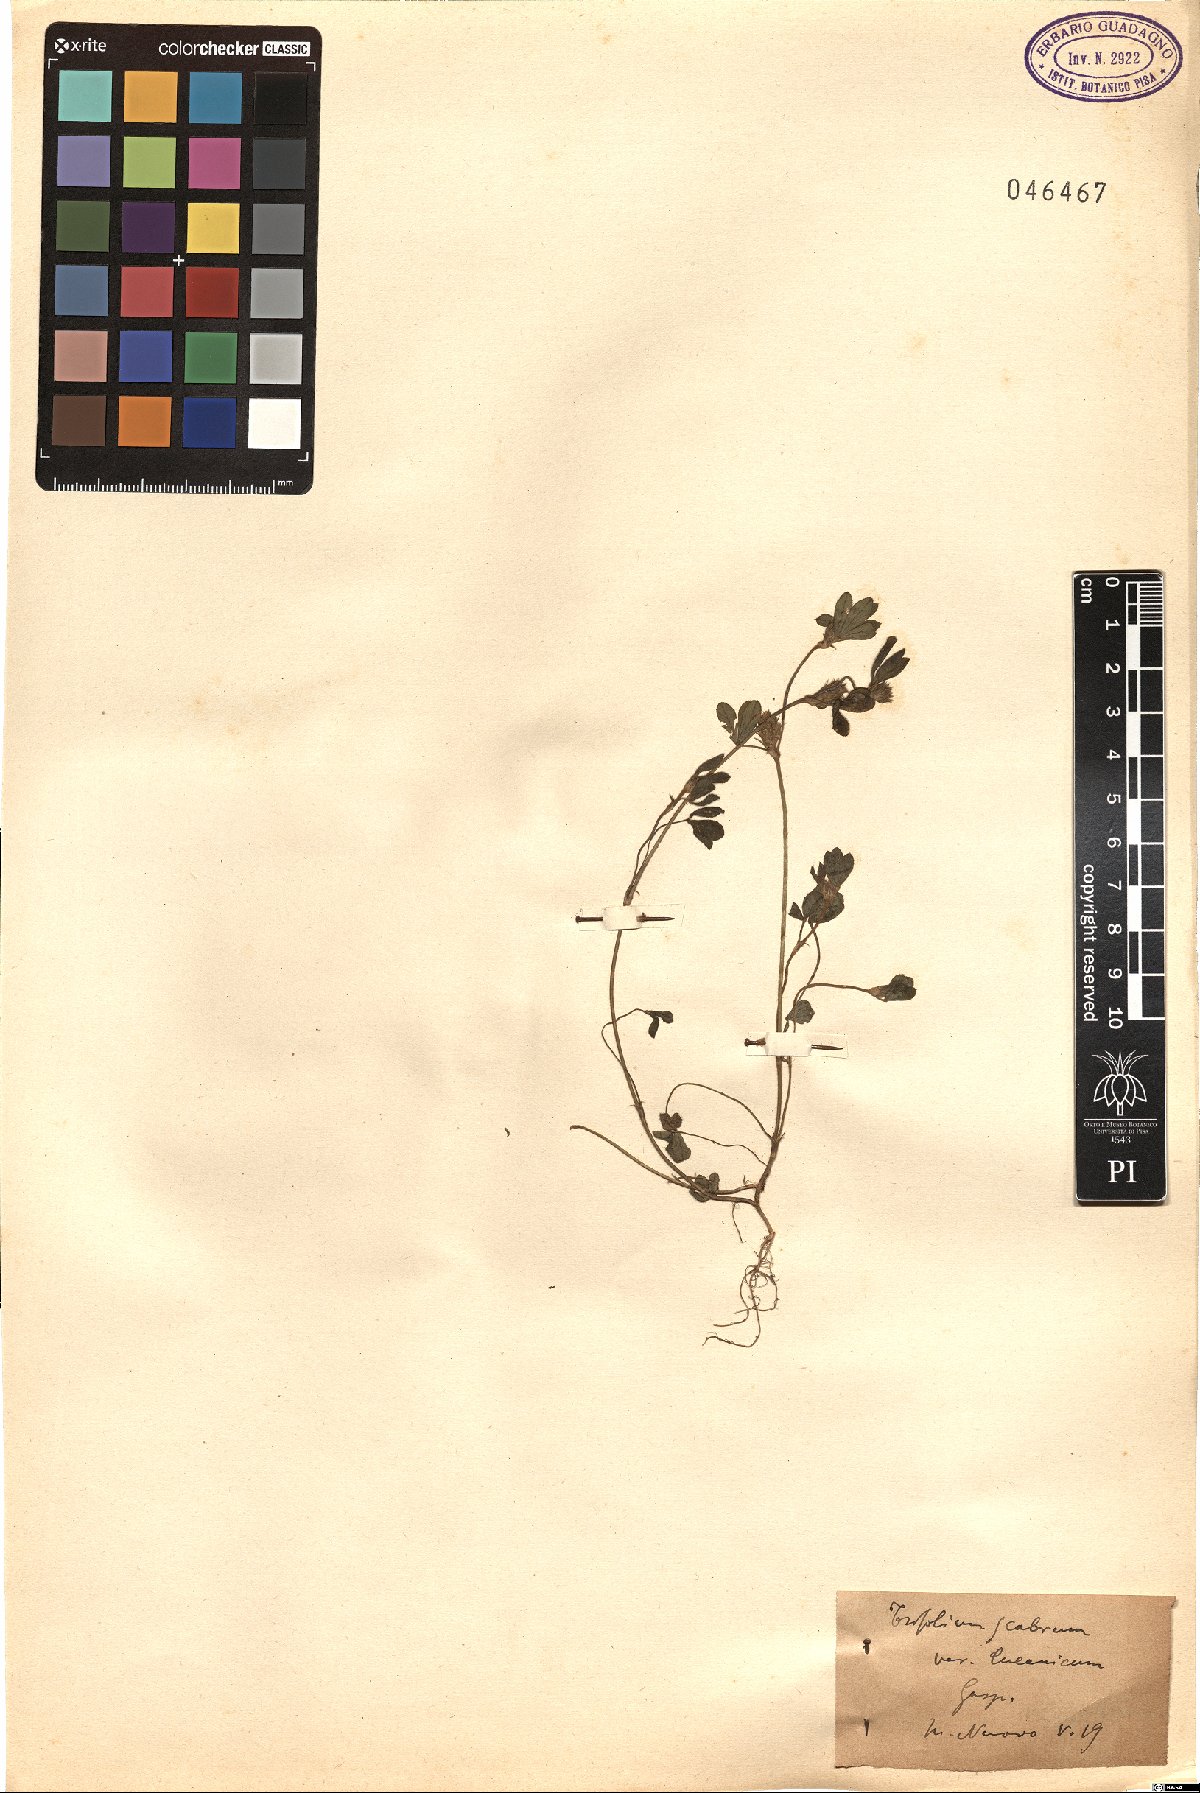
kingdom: Plantae
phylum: Tracheophyta
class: Magnoliopsida
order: Fabales
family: Fabaceae
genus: Trifolium
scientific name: Trifolium lucanicum
